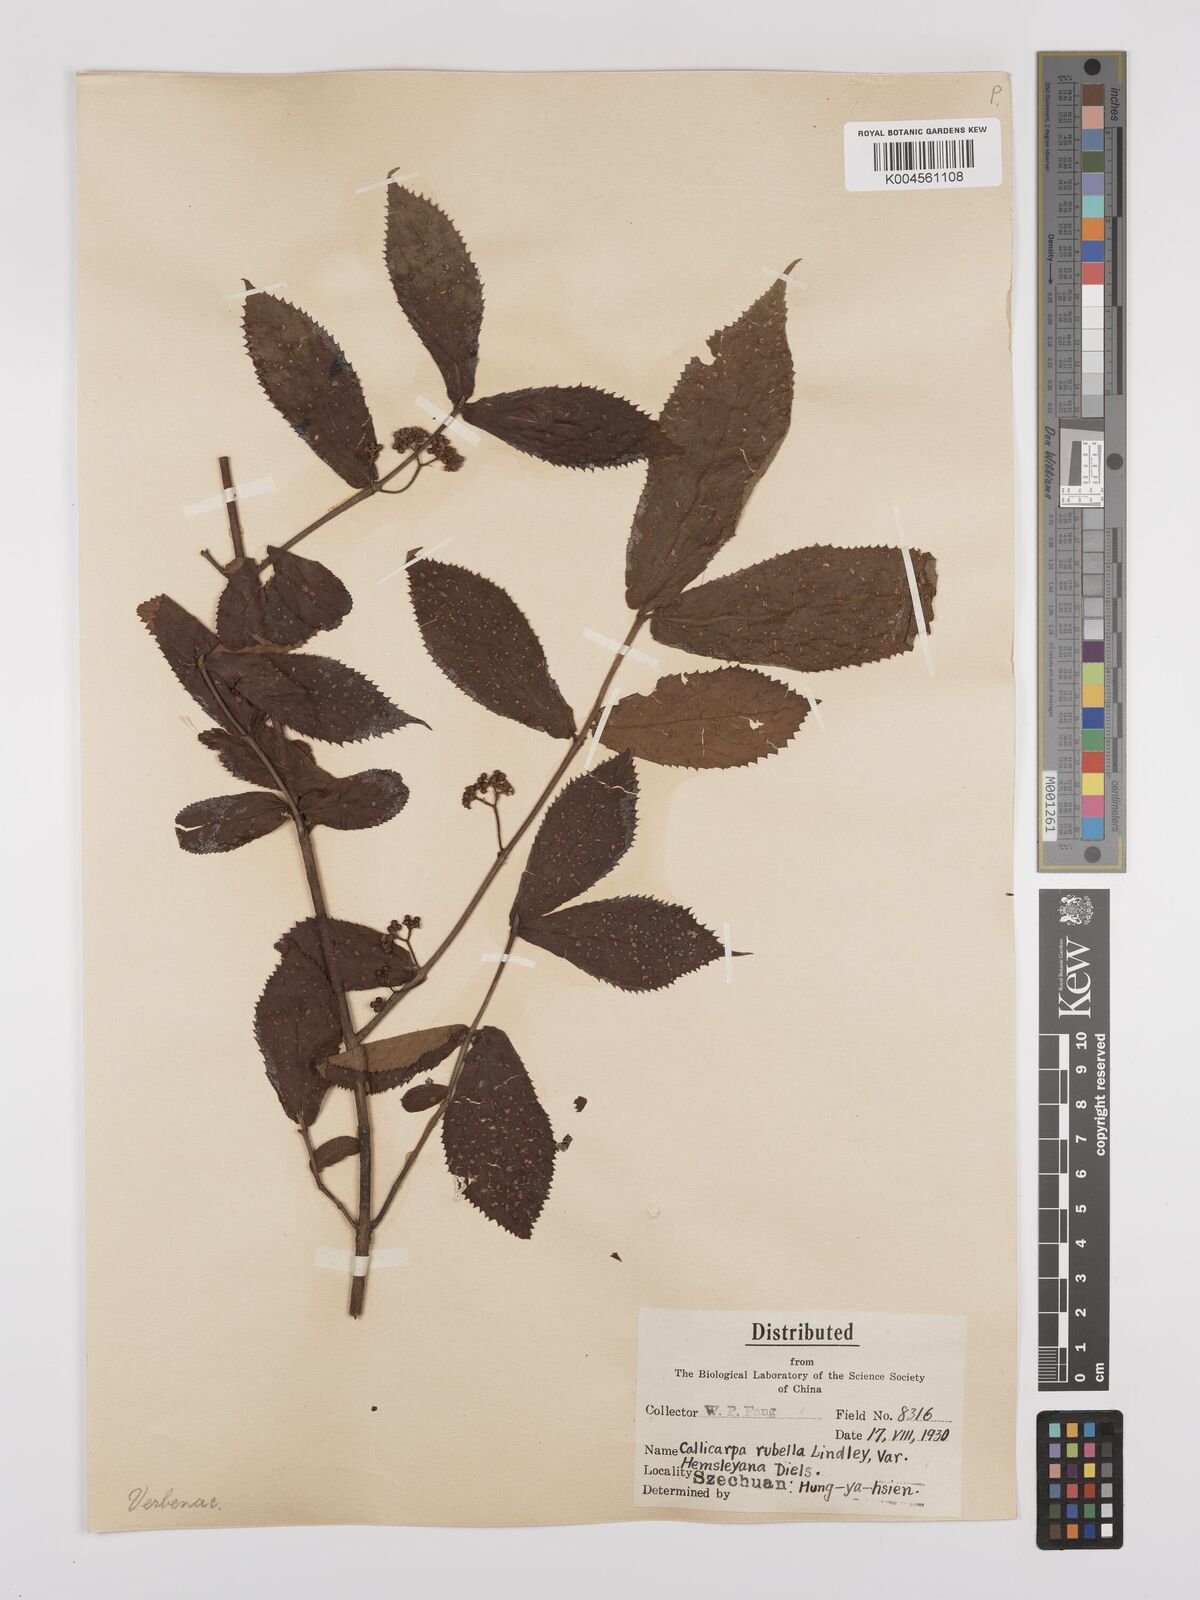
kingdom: Plantae
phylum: Tracheophyta
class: Magnoliopsida
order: Lamiales
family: Lamiaceae
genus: Callicarpa
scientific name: Callicarpa rubella
